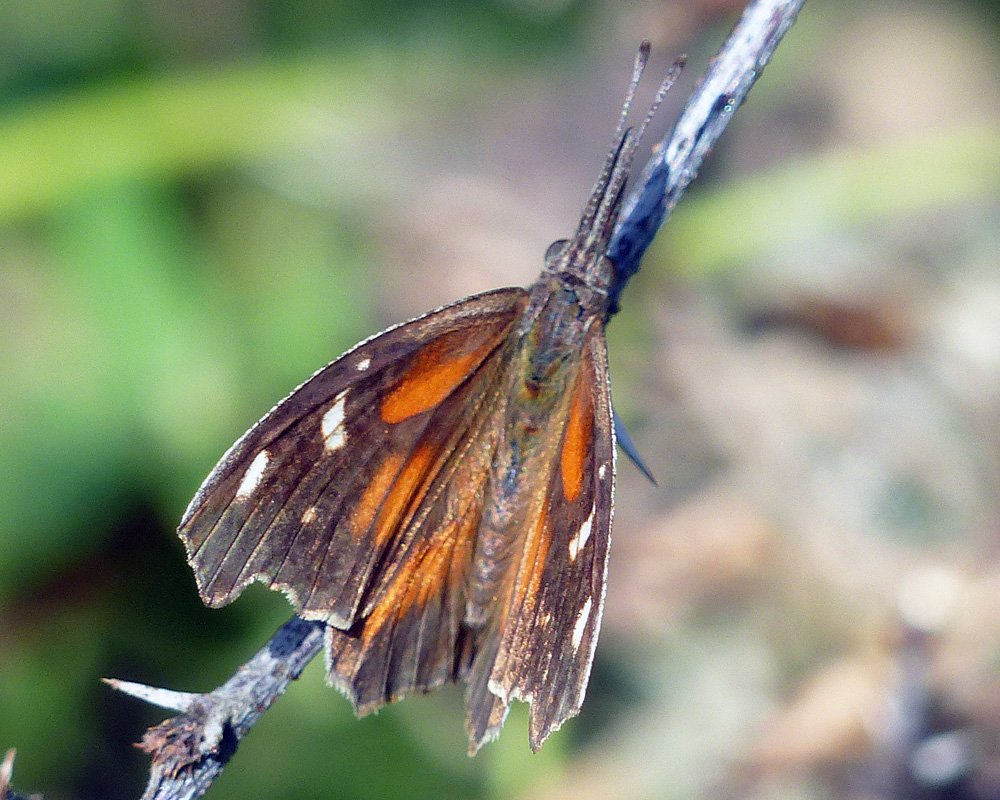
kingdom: Animalia
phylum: Arthropoda
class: Insecta
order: Lepidoptera
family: Nymphalidae
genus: Libytheana
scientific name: Libytheana carinenta
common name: American Snout
